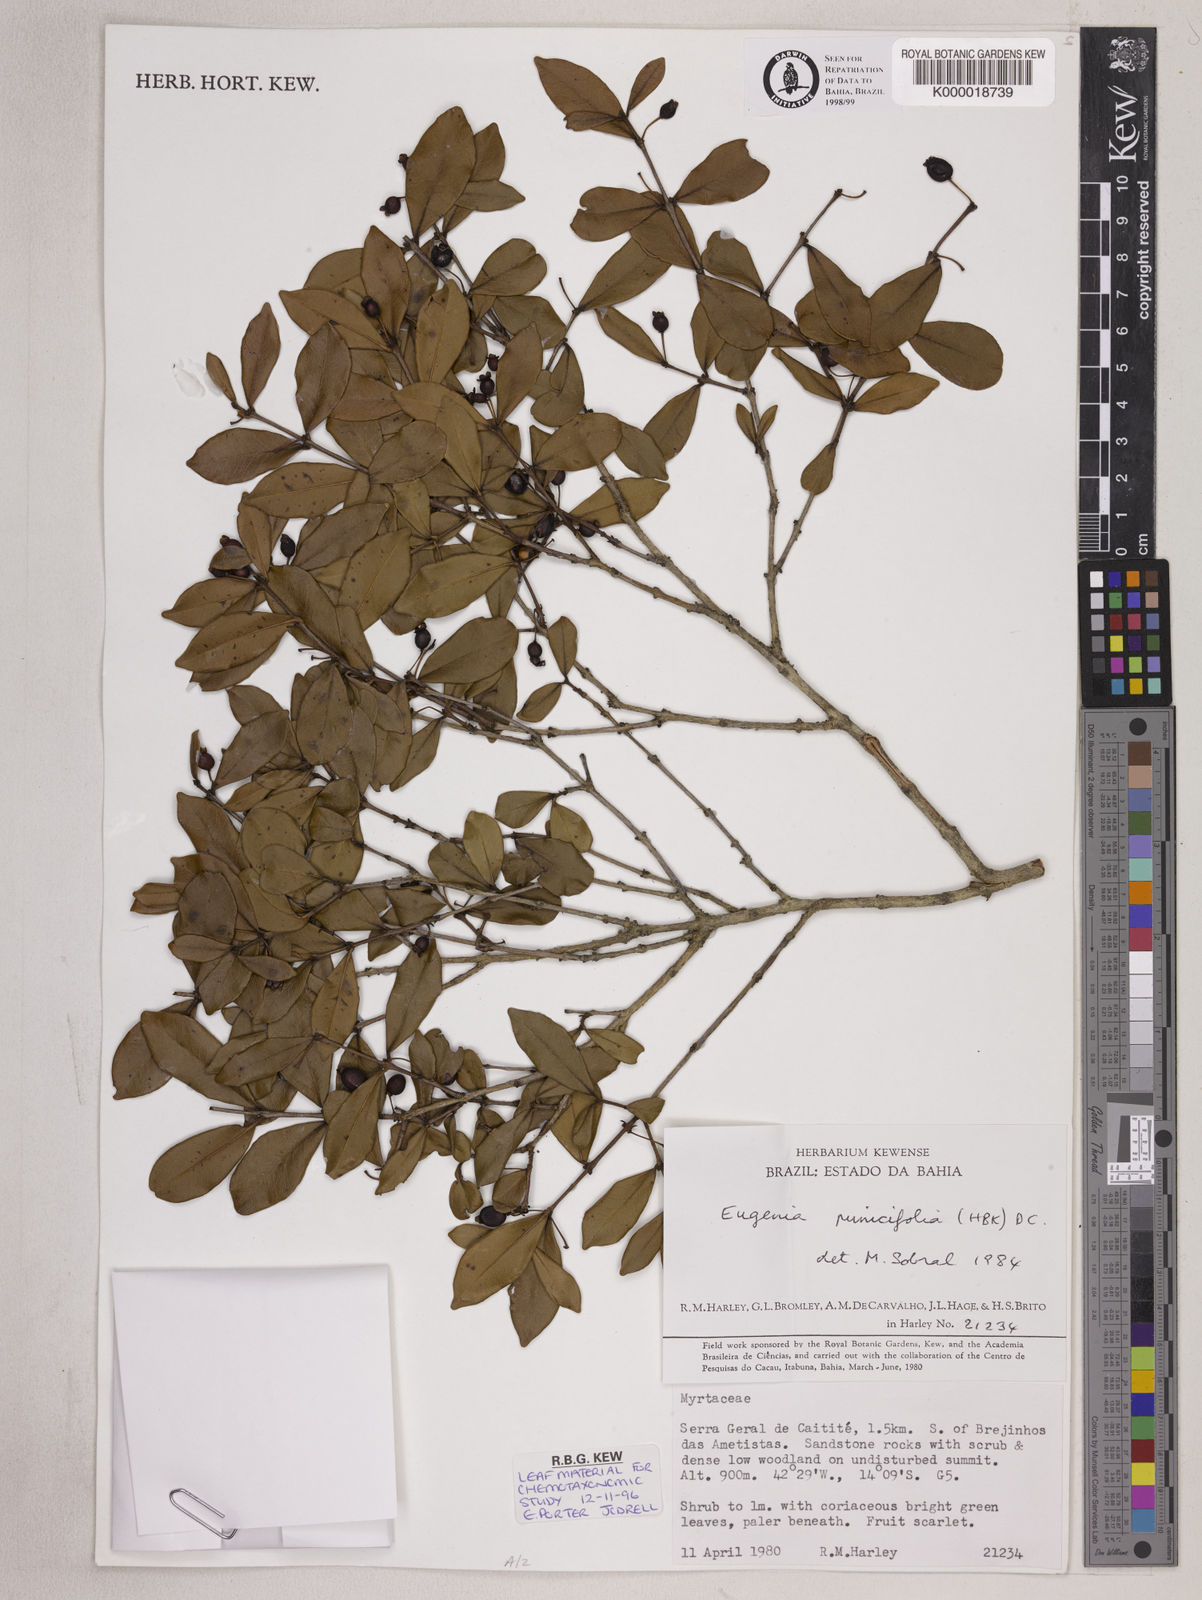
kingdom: Plantae
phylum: Tracheophyta
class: Magnoliopsida
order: Myrtales
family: Myrtaceae
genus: Eugenia
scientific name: Eugenia punicifolia
